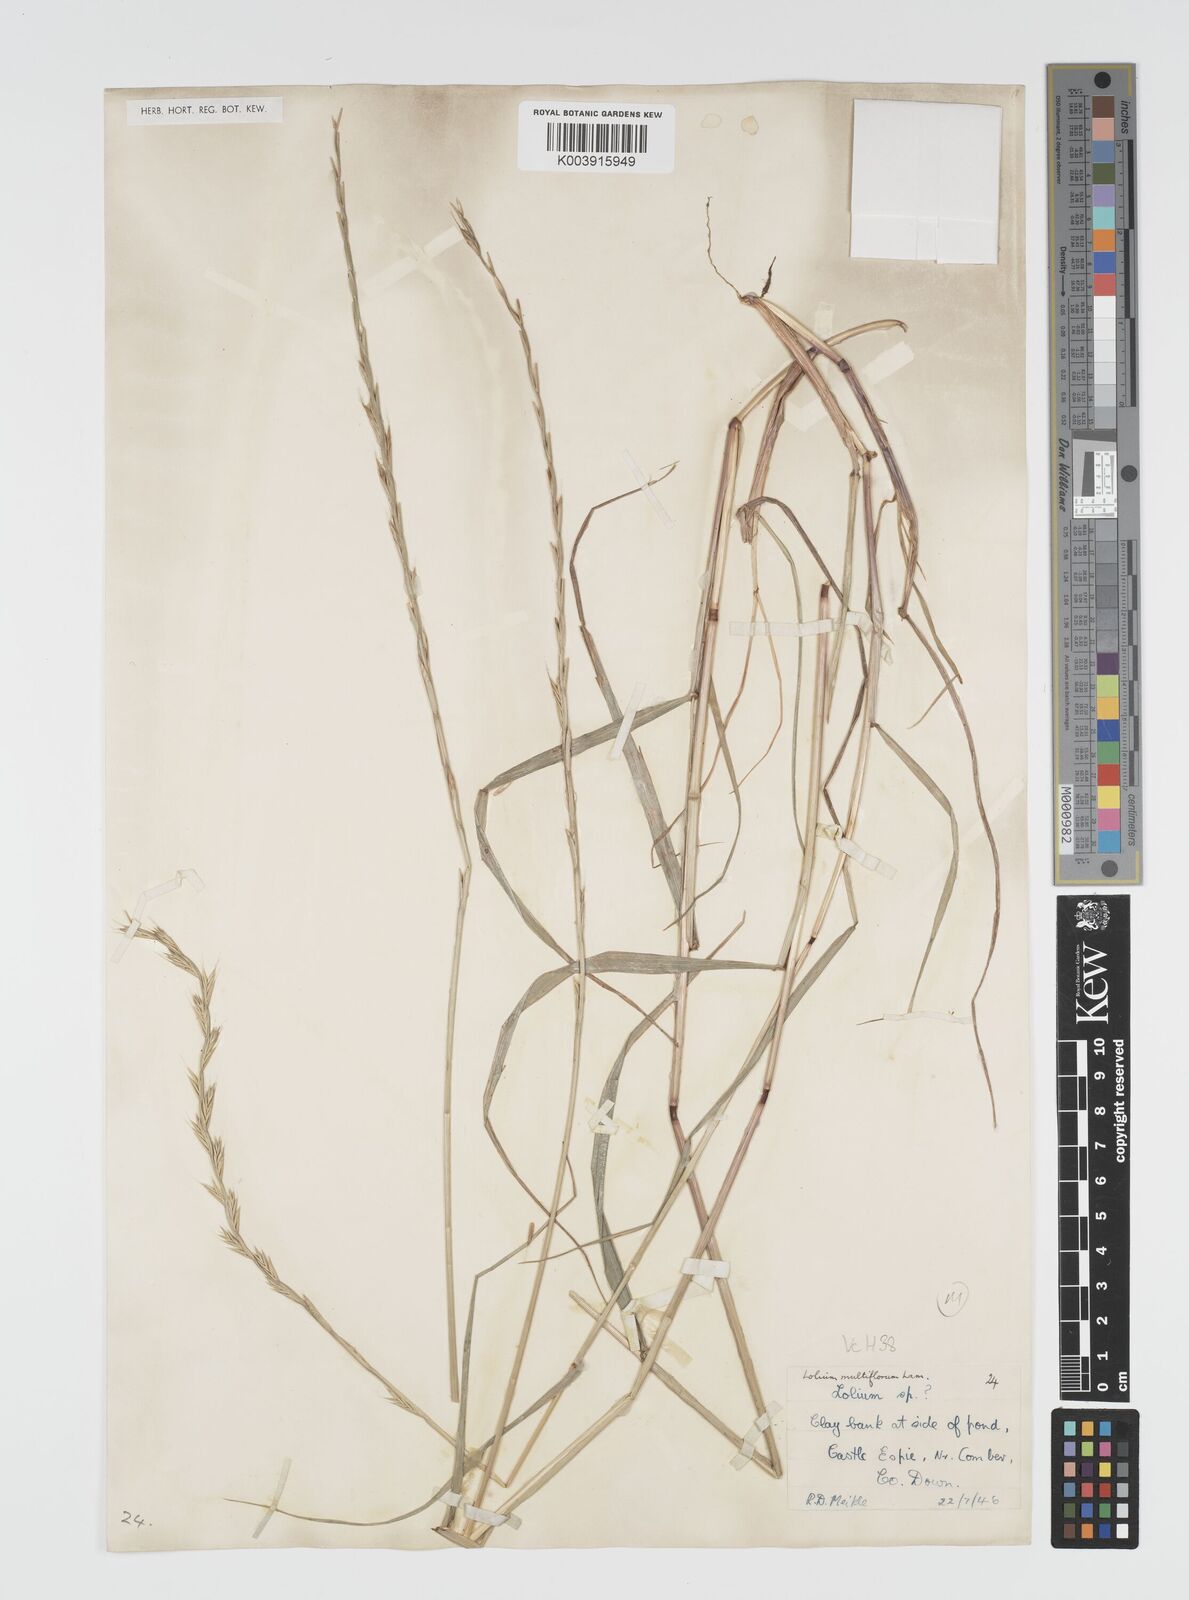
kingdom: Plantae
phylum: Tracheophyta
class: Liliopsida
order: Poales
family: Poaceae
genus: Lolium
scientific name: Lolium multiflorum
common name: Annual ryegrass
